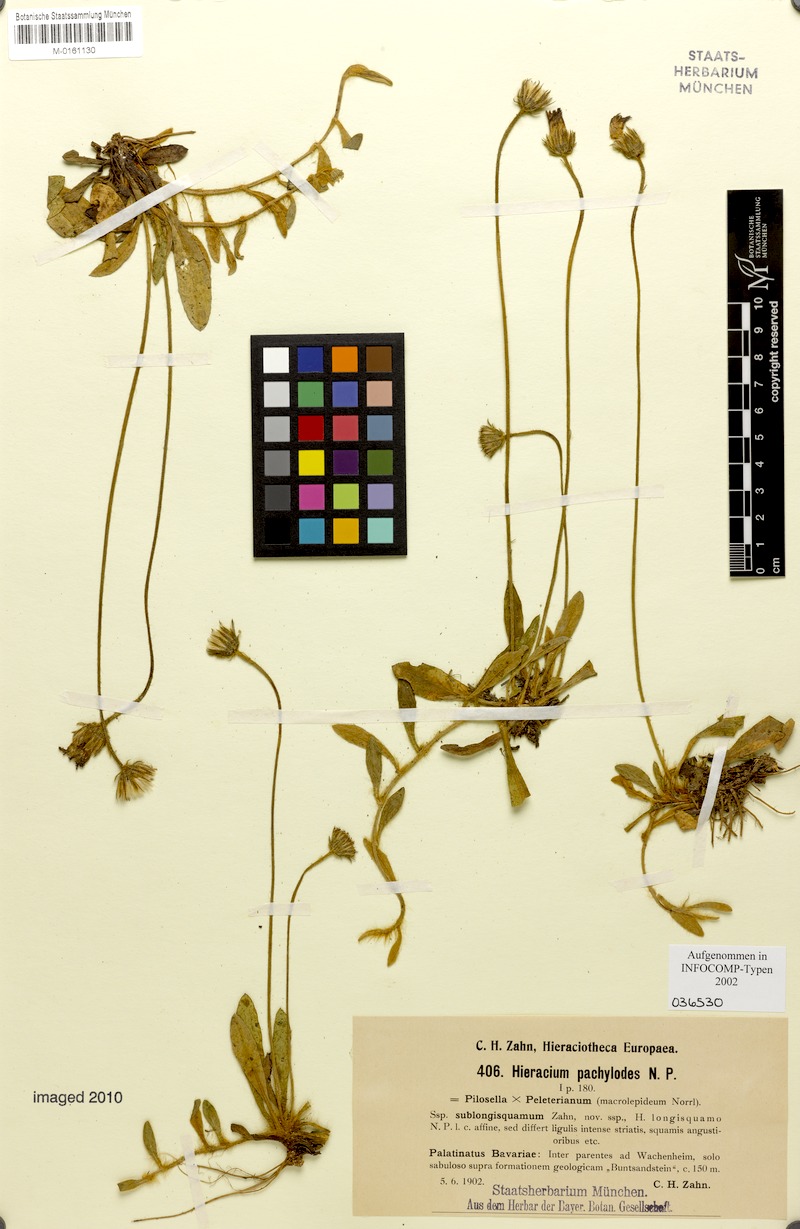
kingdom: Plantae
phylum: Tracheophyta
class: Magnoliopsida
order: Asterales
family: Asteraceae
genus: Pilosella
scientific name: Pilosella longisquama
